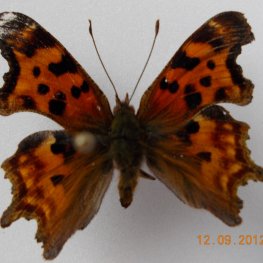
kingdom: Animalia
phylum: Arthropoda
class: Insecta
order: Lepidoptera
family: Nymphalidae
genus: Polygonia
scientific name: Polygonia satyrus
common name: Satyr Comma
